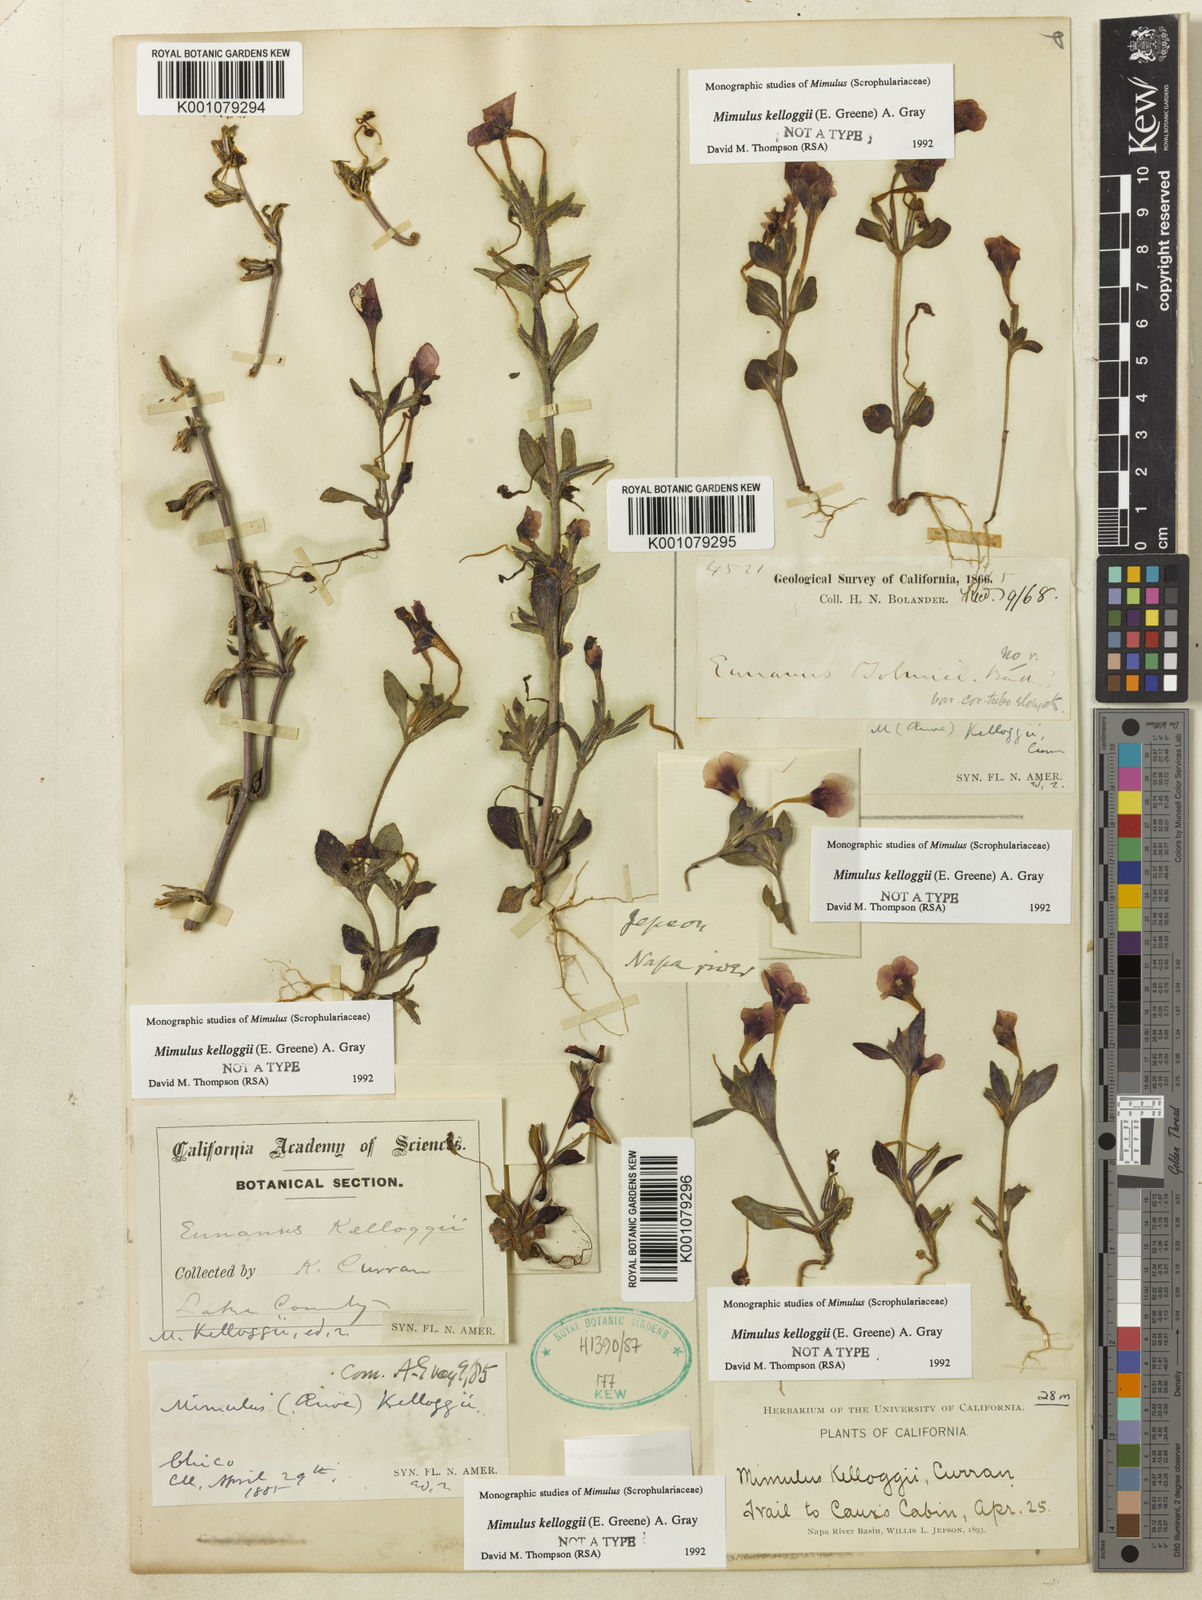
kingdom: Plantae
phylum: Tracheophyta
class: Magnoliopsida
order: Lamiales
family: Phrymaceae
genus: Mimulus
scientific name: Mimulus
